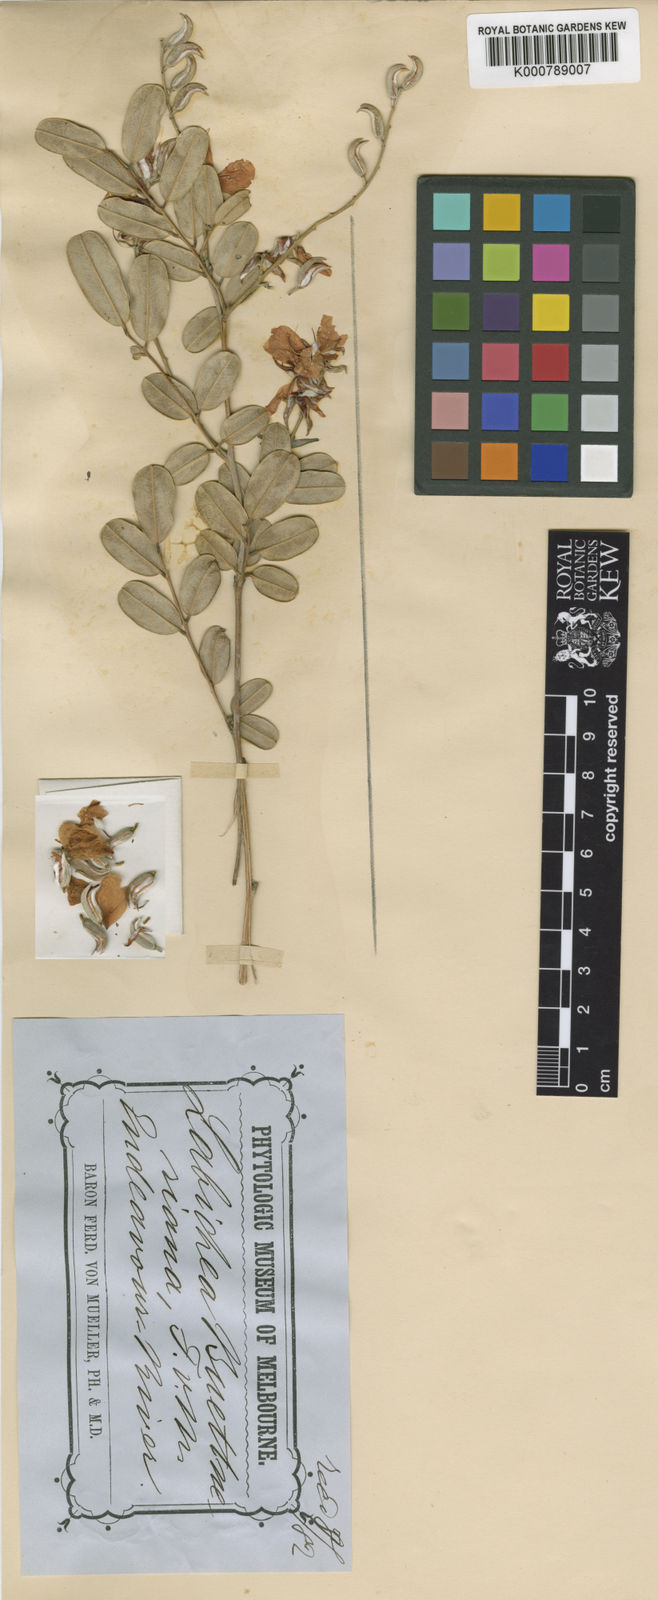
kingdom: Plantae
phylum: Tracheophyta
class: Magnoliopsida
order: Fabales
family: Fabaceae
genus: Labichea
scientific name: Labichea buettneriana
